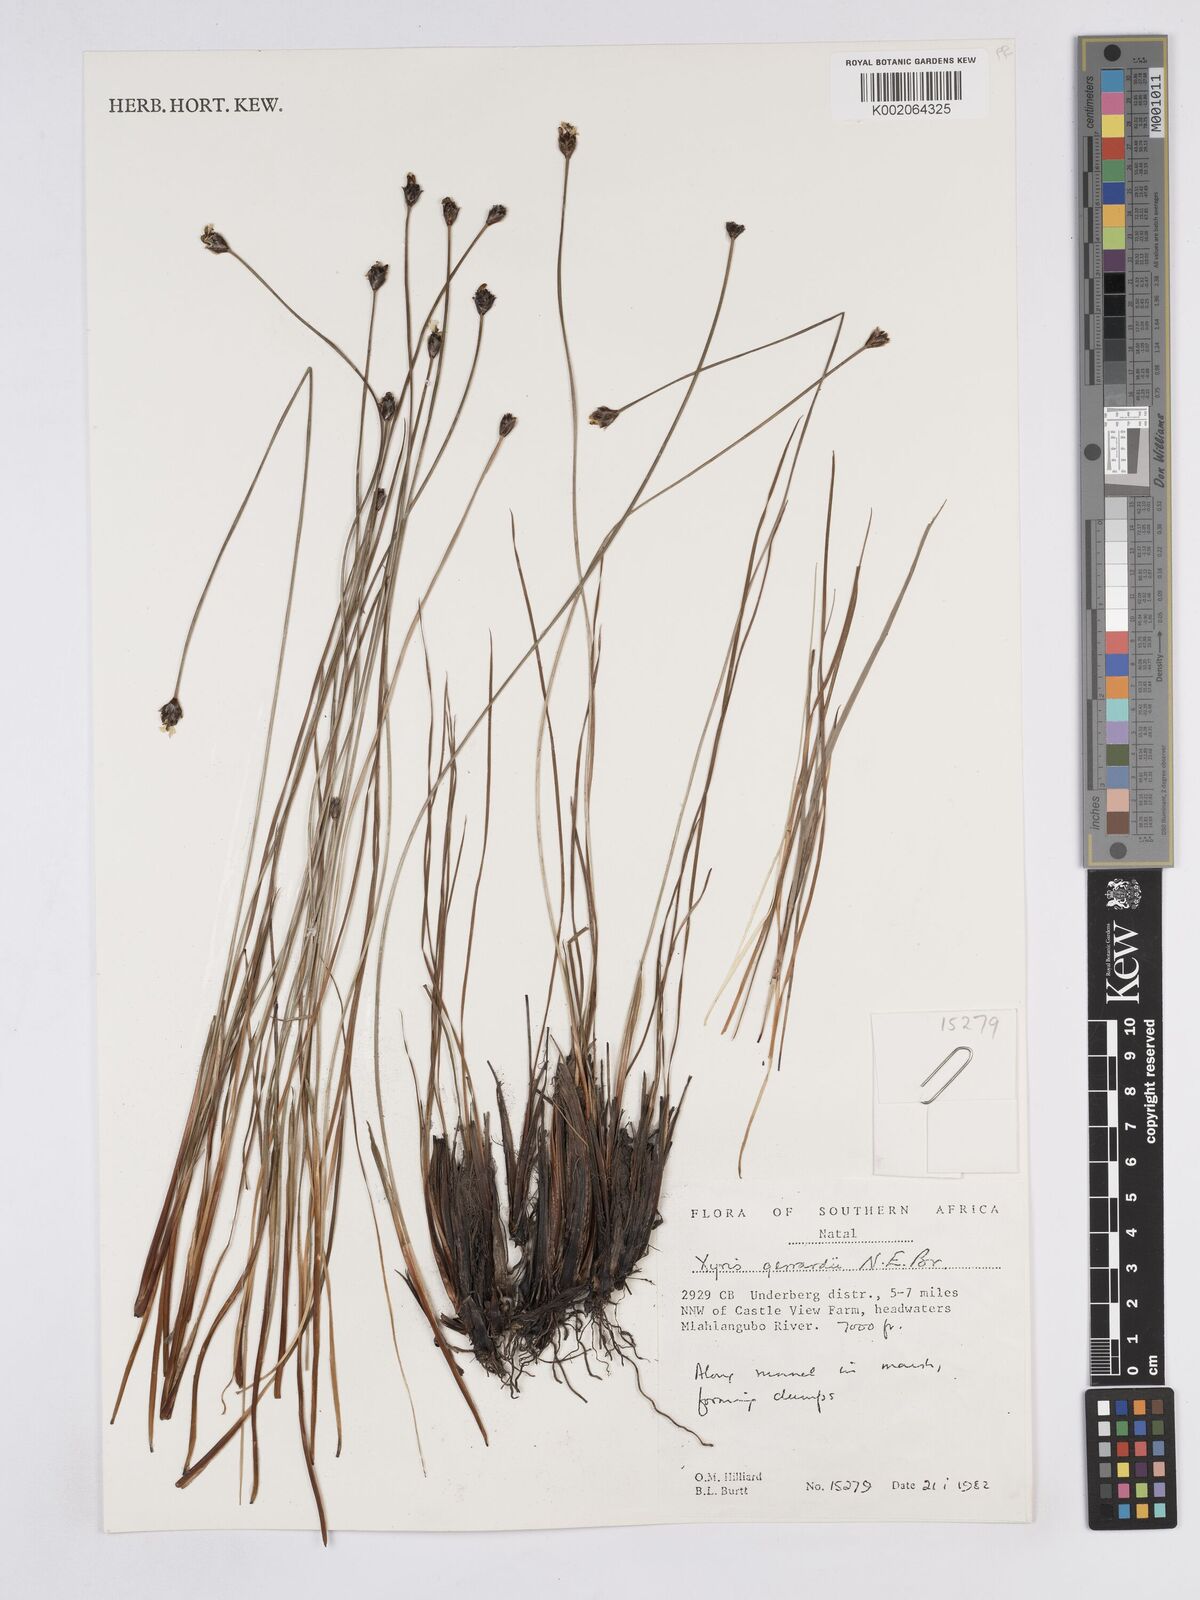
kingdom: Plantae
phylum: Tracheophyta
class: Liliopsida
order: Poales
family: Xyridaceae
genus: Xyris
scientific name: Xyris gerrardii
